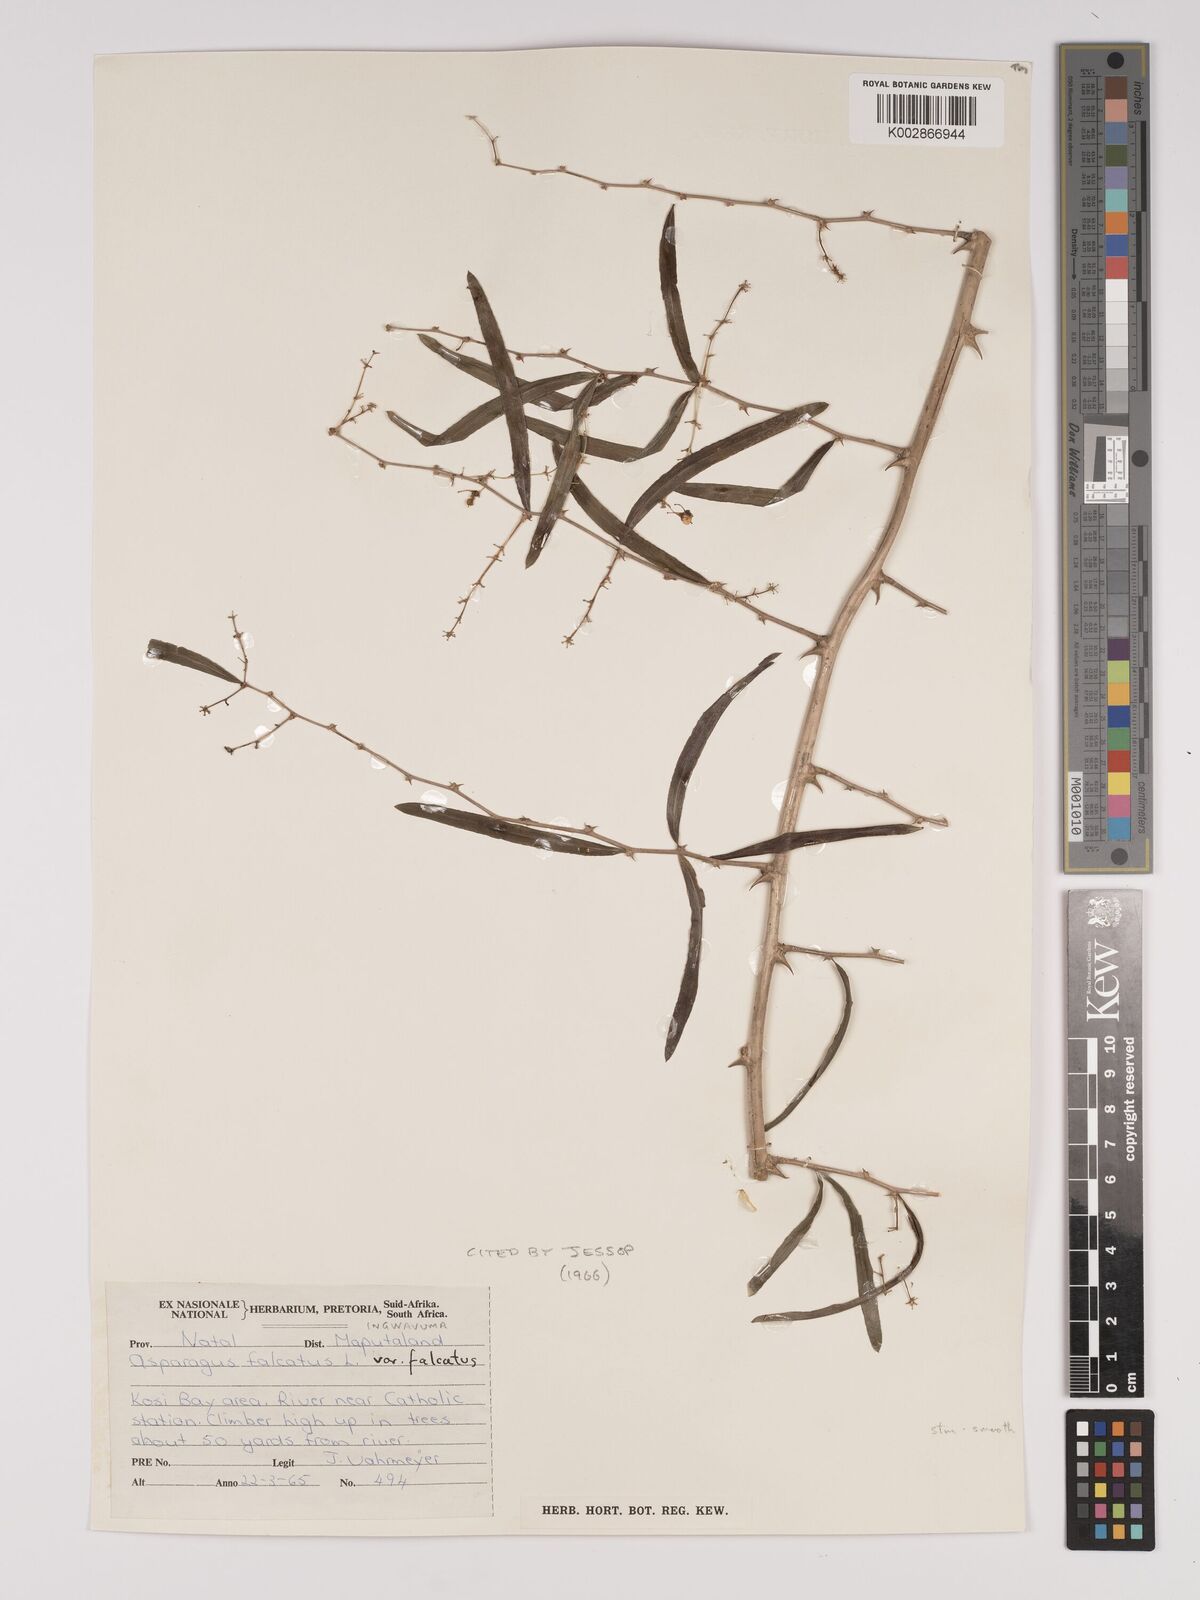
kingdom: Plantae
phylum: Tracheophyta
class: Liliopsida
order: Asparagales
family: Asparagaceae
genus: Asparagus
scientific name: Asparagus falcatus
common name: Asparagus
